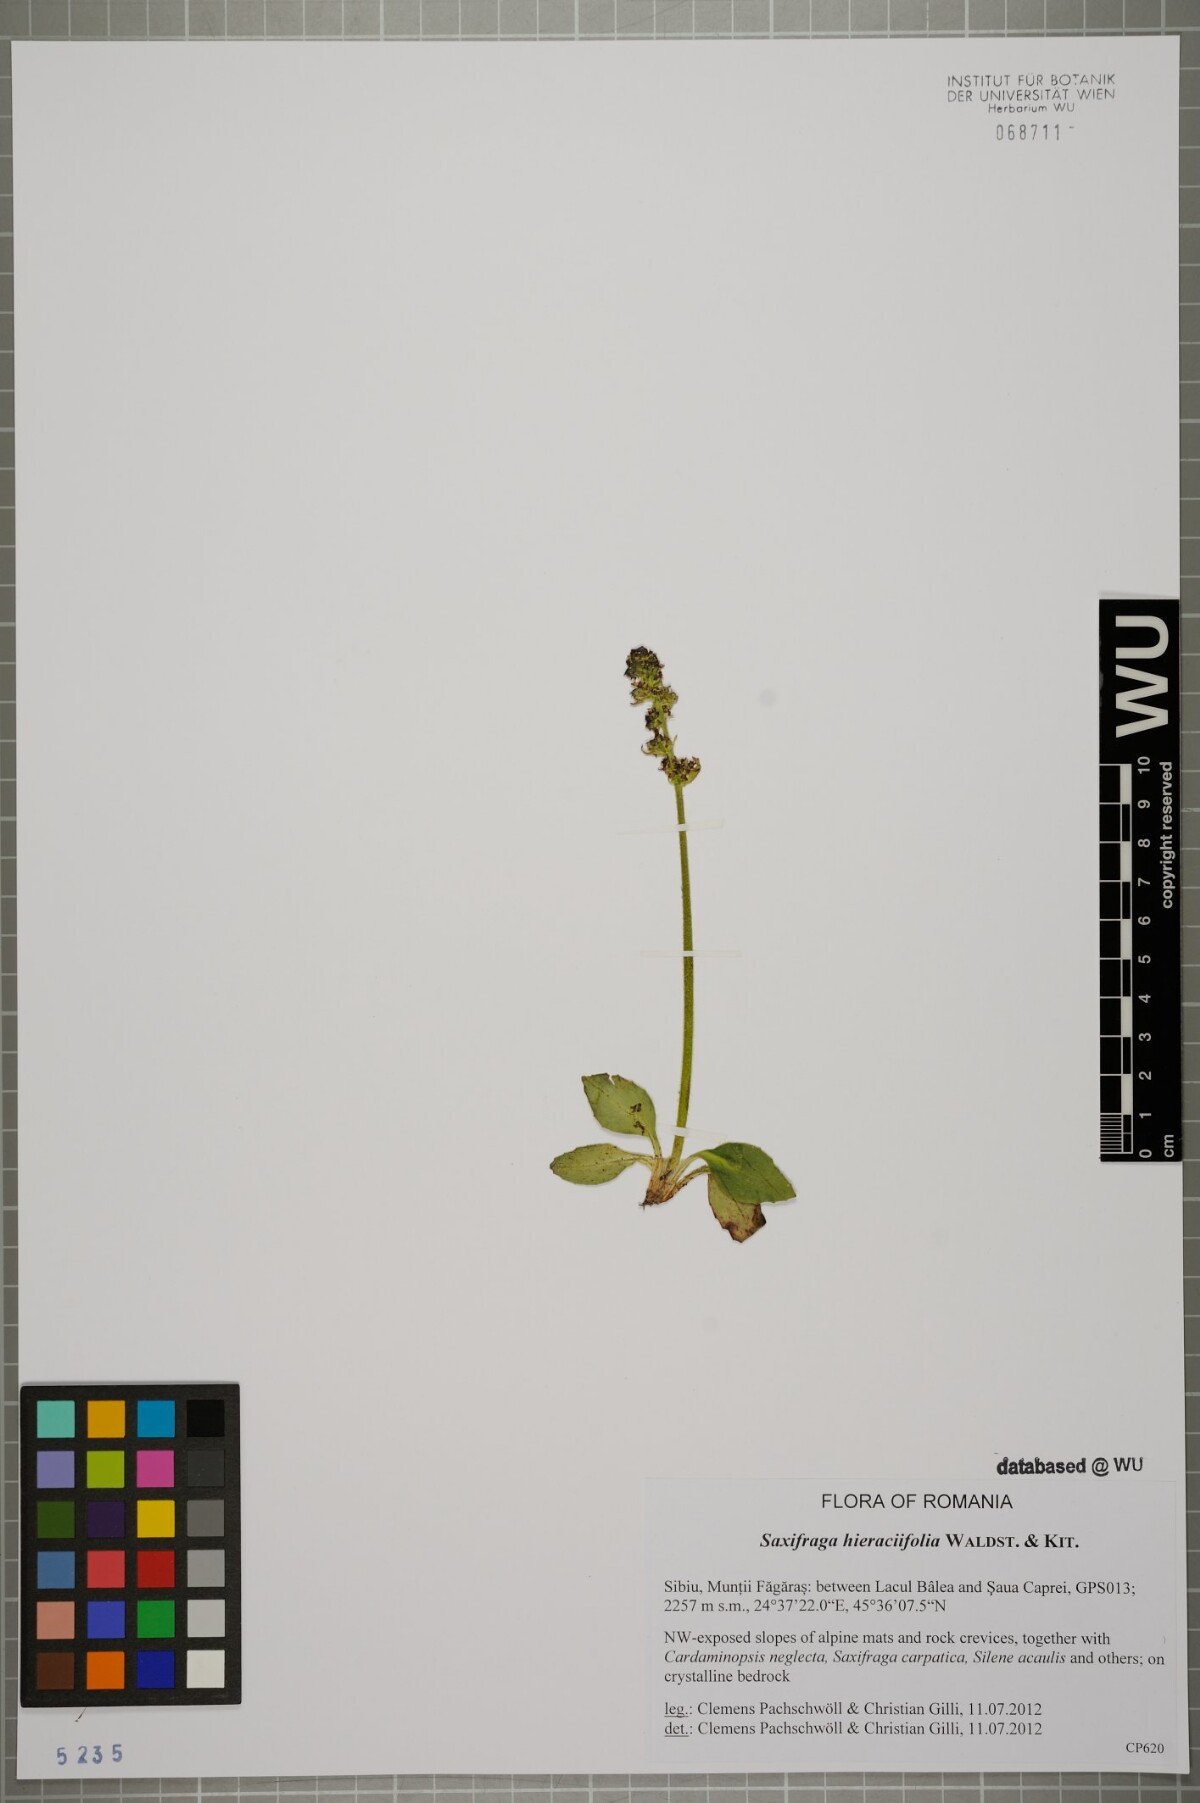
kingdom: Plantae
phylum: Tracheophyta
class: Magnoliopsida
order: Saxifragales
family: Saxifragaceae
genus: Micranthes
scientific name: Micranthes hieraciifolia
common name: Hawkweed-leaved saxifrage
